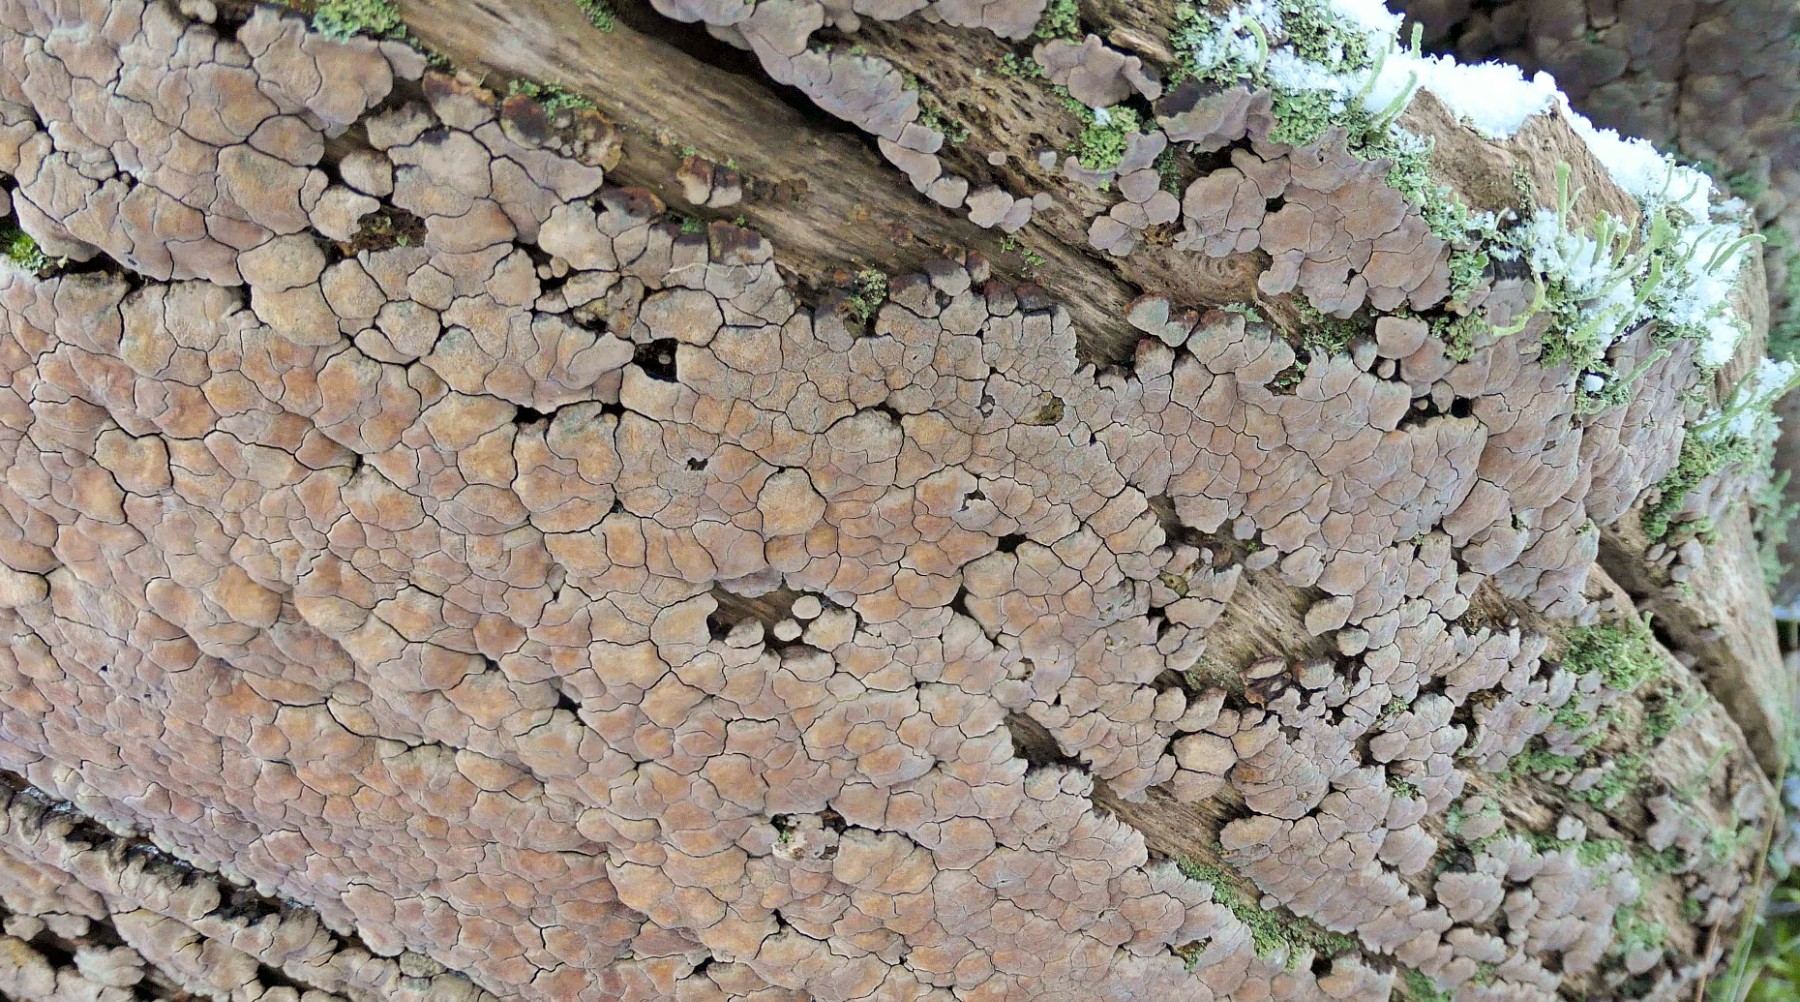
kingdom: Fungi
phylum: Basidiomycota
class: Agaricomycetes
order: Russulales
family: Stereaceae
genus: Xylobolus
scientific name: Xylobolus frustulatus
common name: mønster-lædersvamp
